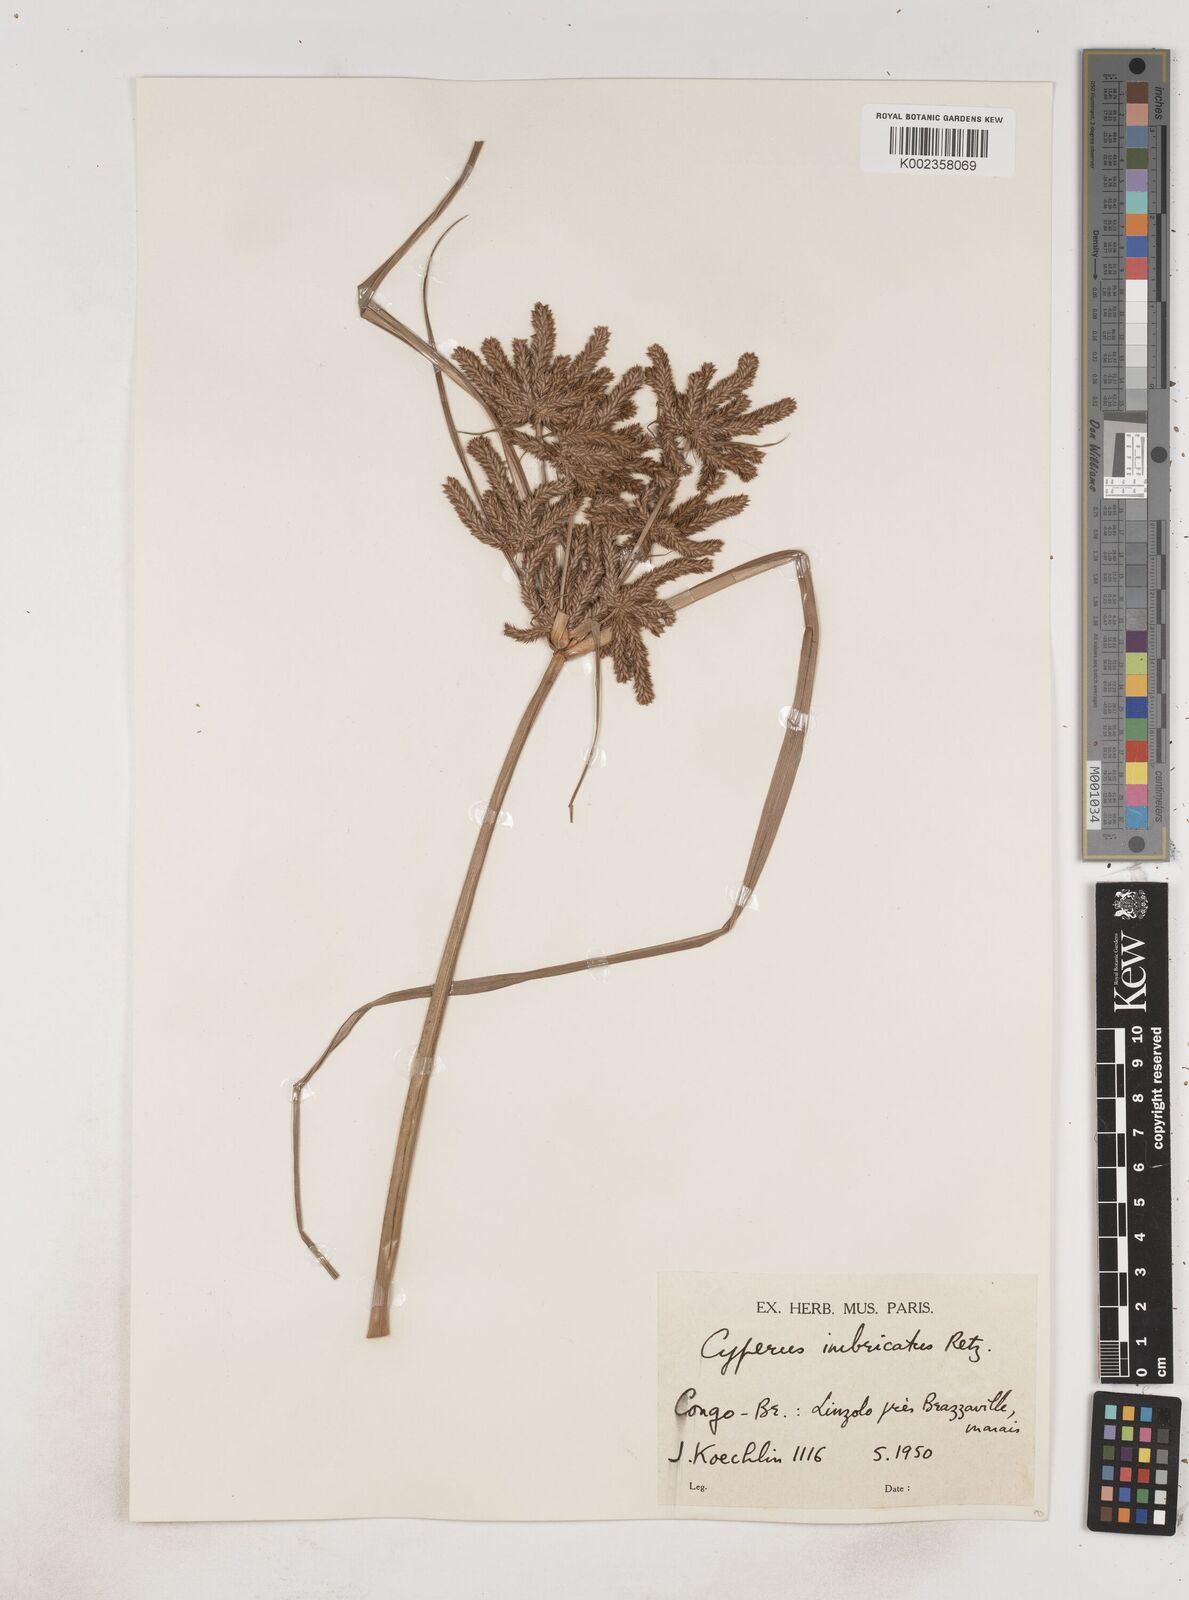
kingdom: Plantae
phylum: Tracheophyta
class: Liliopsida
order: Poales
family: Cyperaceae
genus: Cyperus
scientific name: Cyperus imbricatus
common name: Shingle flatsedge
